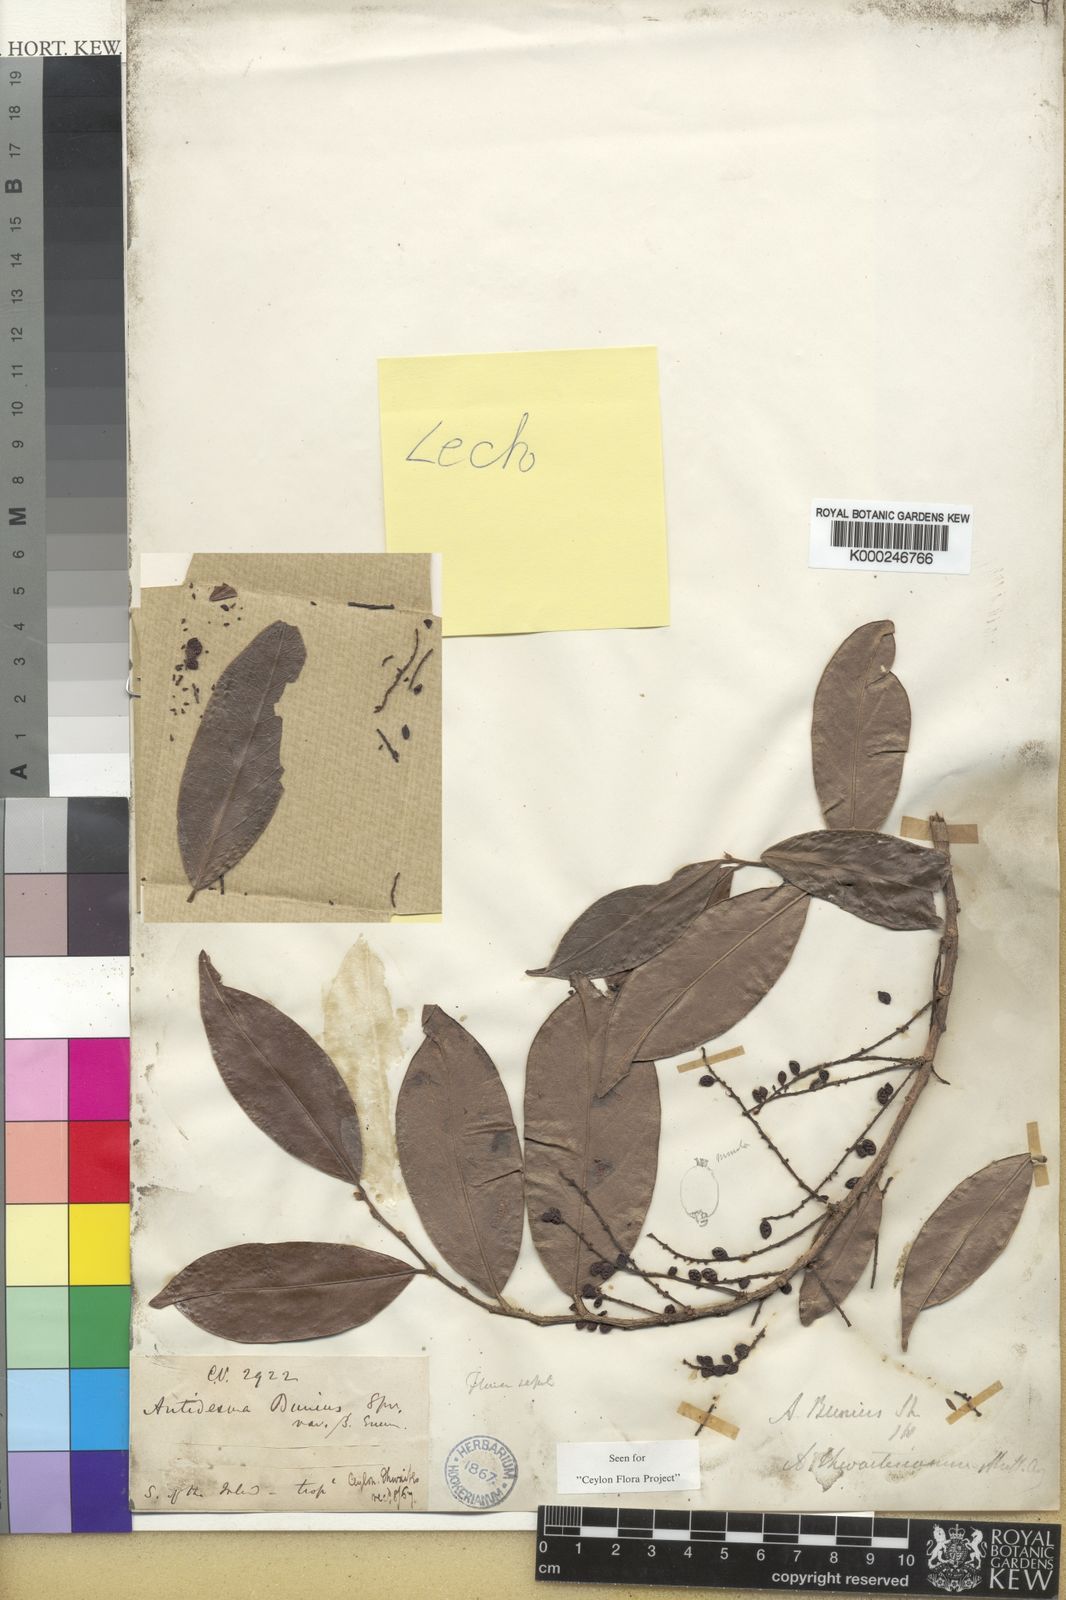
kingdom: Plantae
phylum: Tracheophyta
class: Magnoliopsida
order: Malpighiales
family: Phyllanthaceae
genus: Antidesma
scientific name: Antidesma puncticulatum
